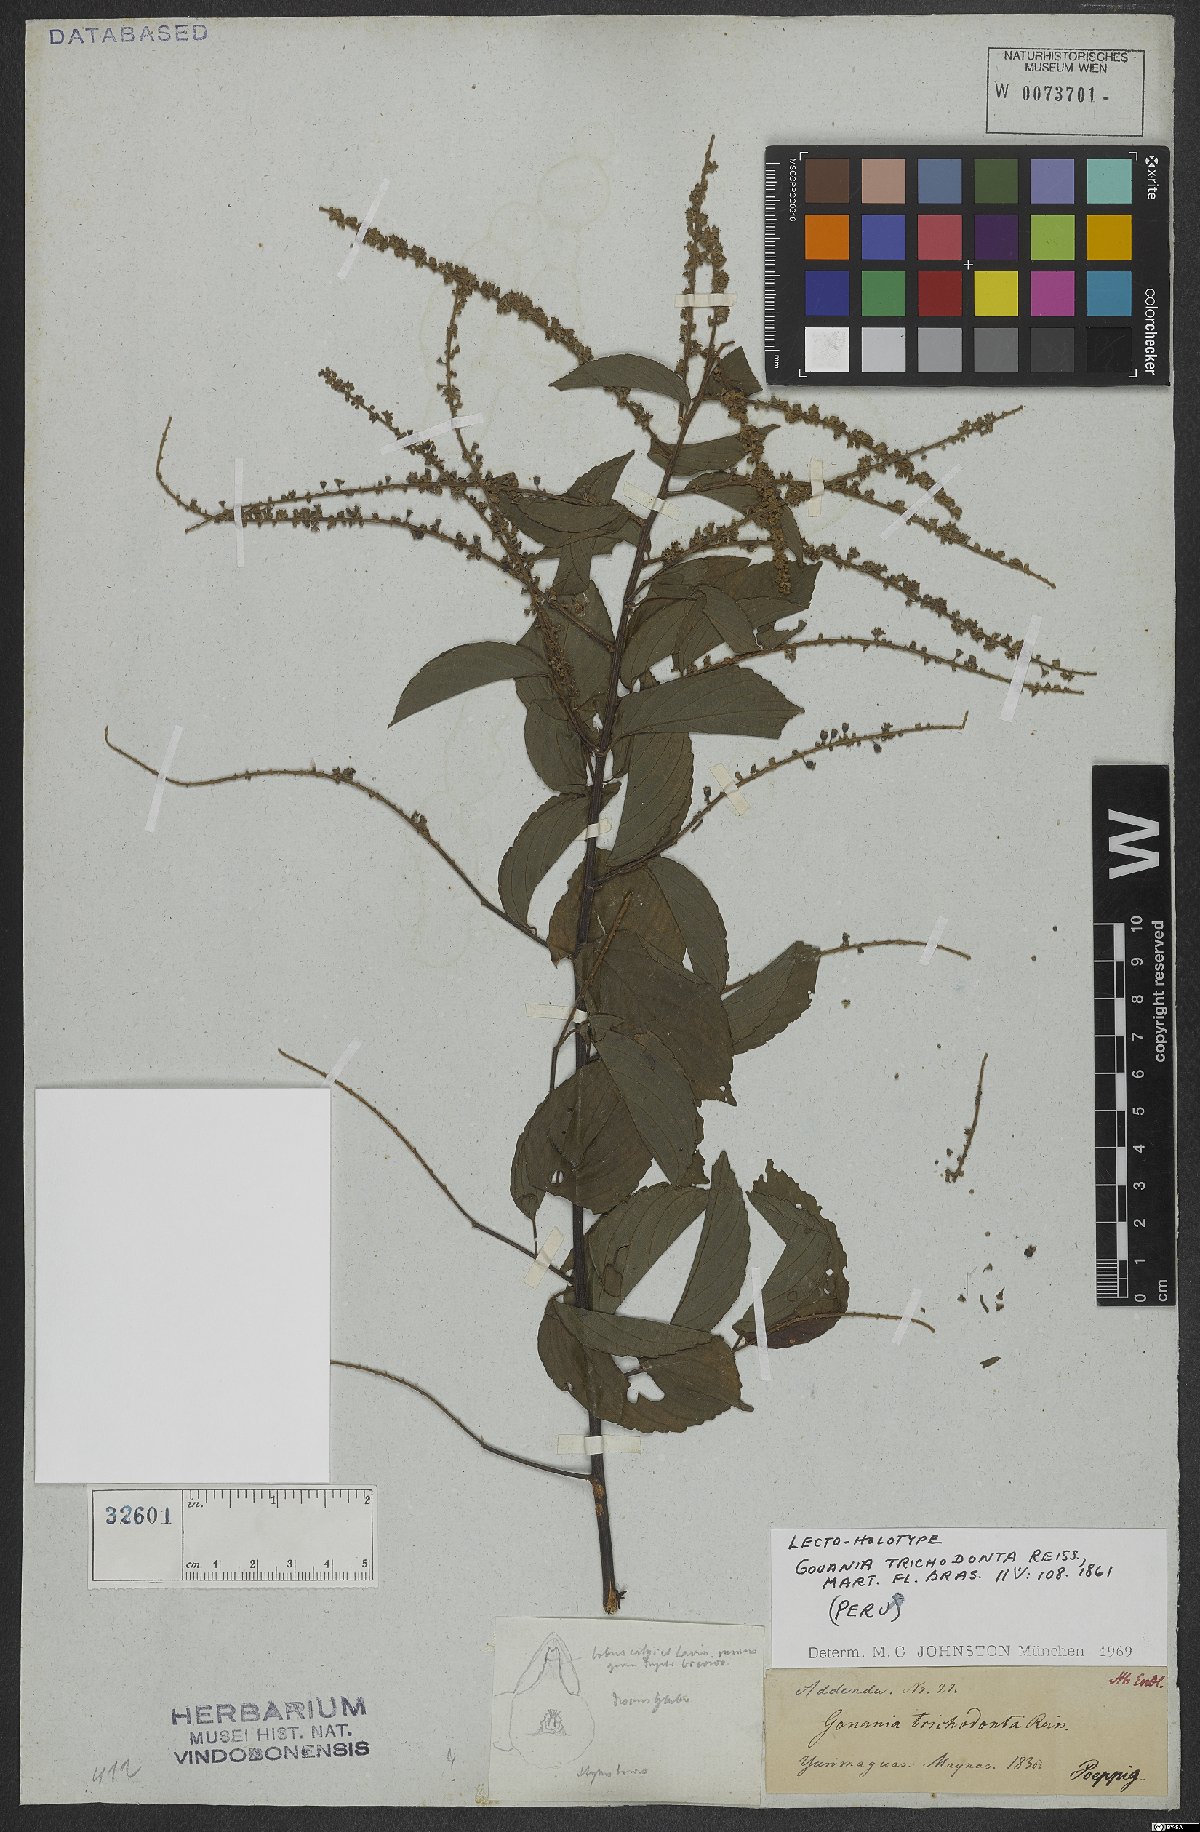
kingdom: Plantae
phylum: Tracheophyta
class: Magnoliopsida
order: Rosales
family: Rhamnaceae
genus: Gouania
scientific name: Gouania trichodonta
